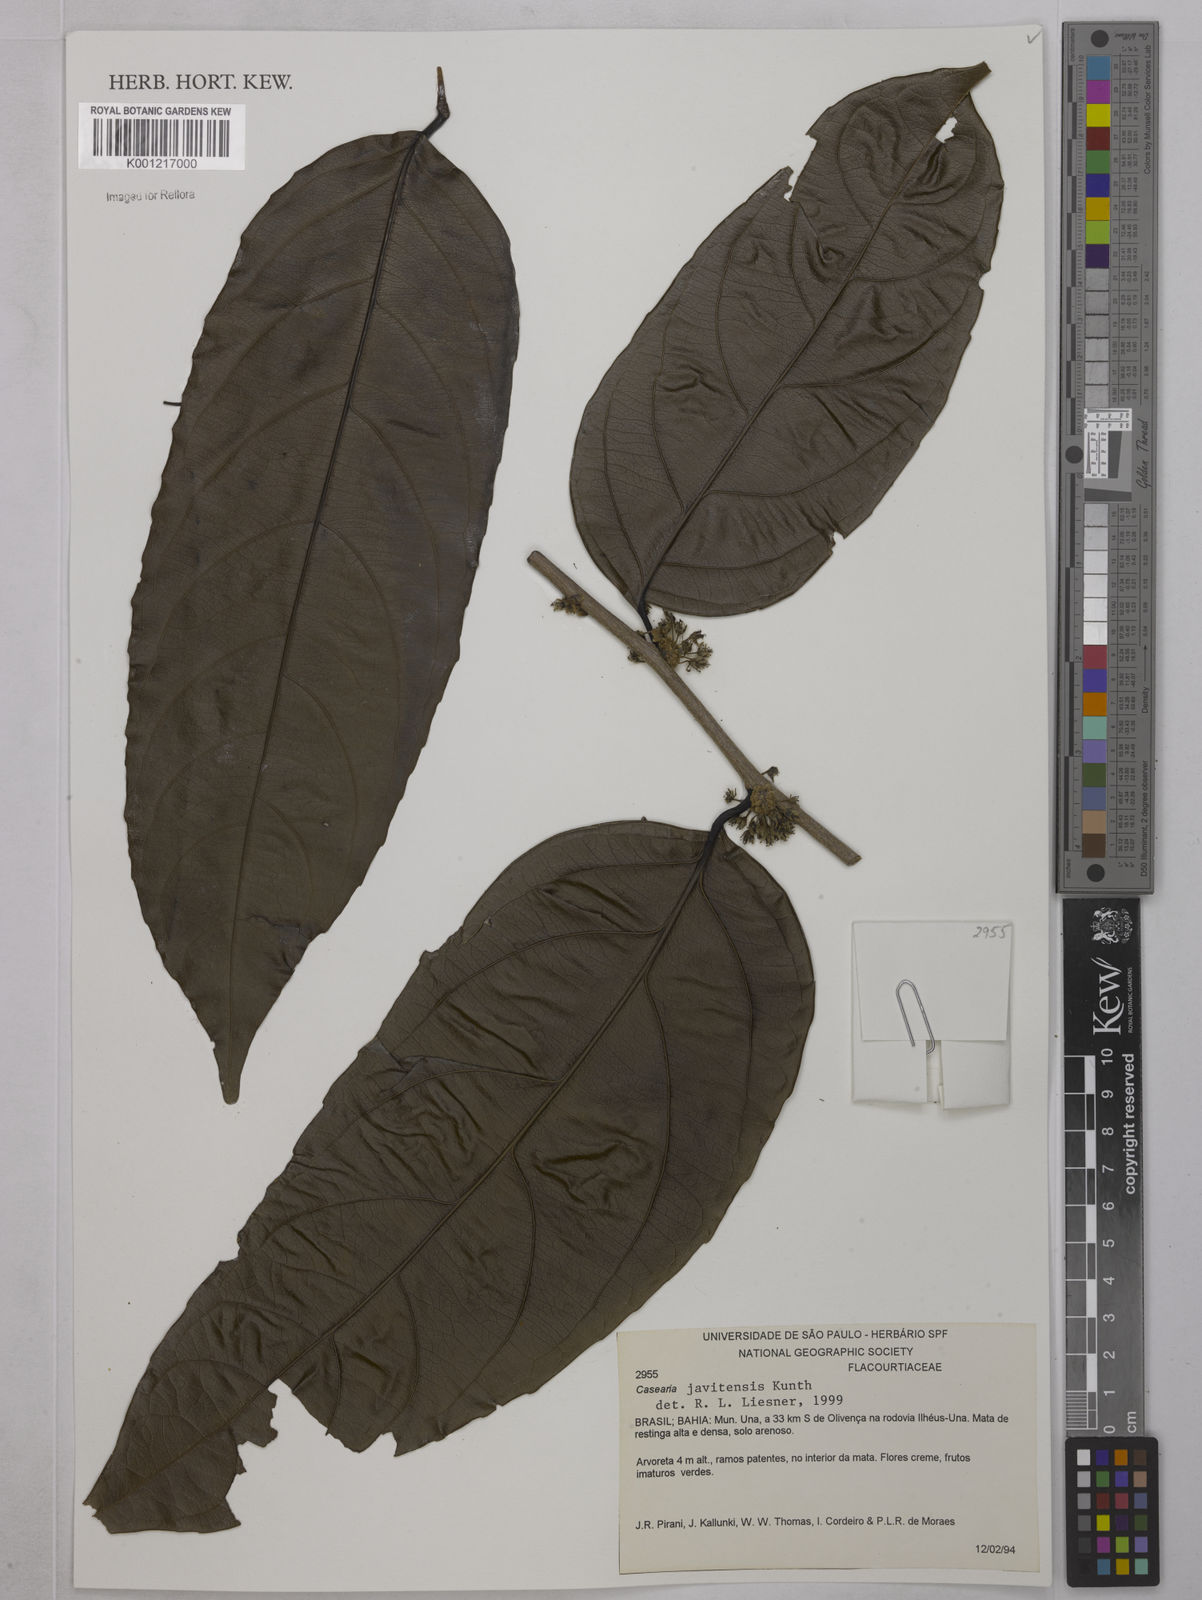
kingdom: Plantae
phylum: Tracheophyta
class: Magnoliopsida
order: Malpighiales
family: Salicaceae
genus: Piparea
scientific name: Piparea multiflora
